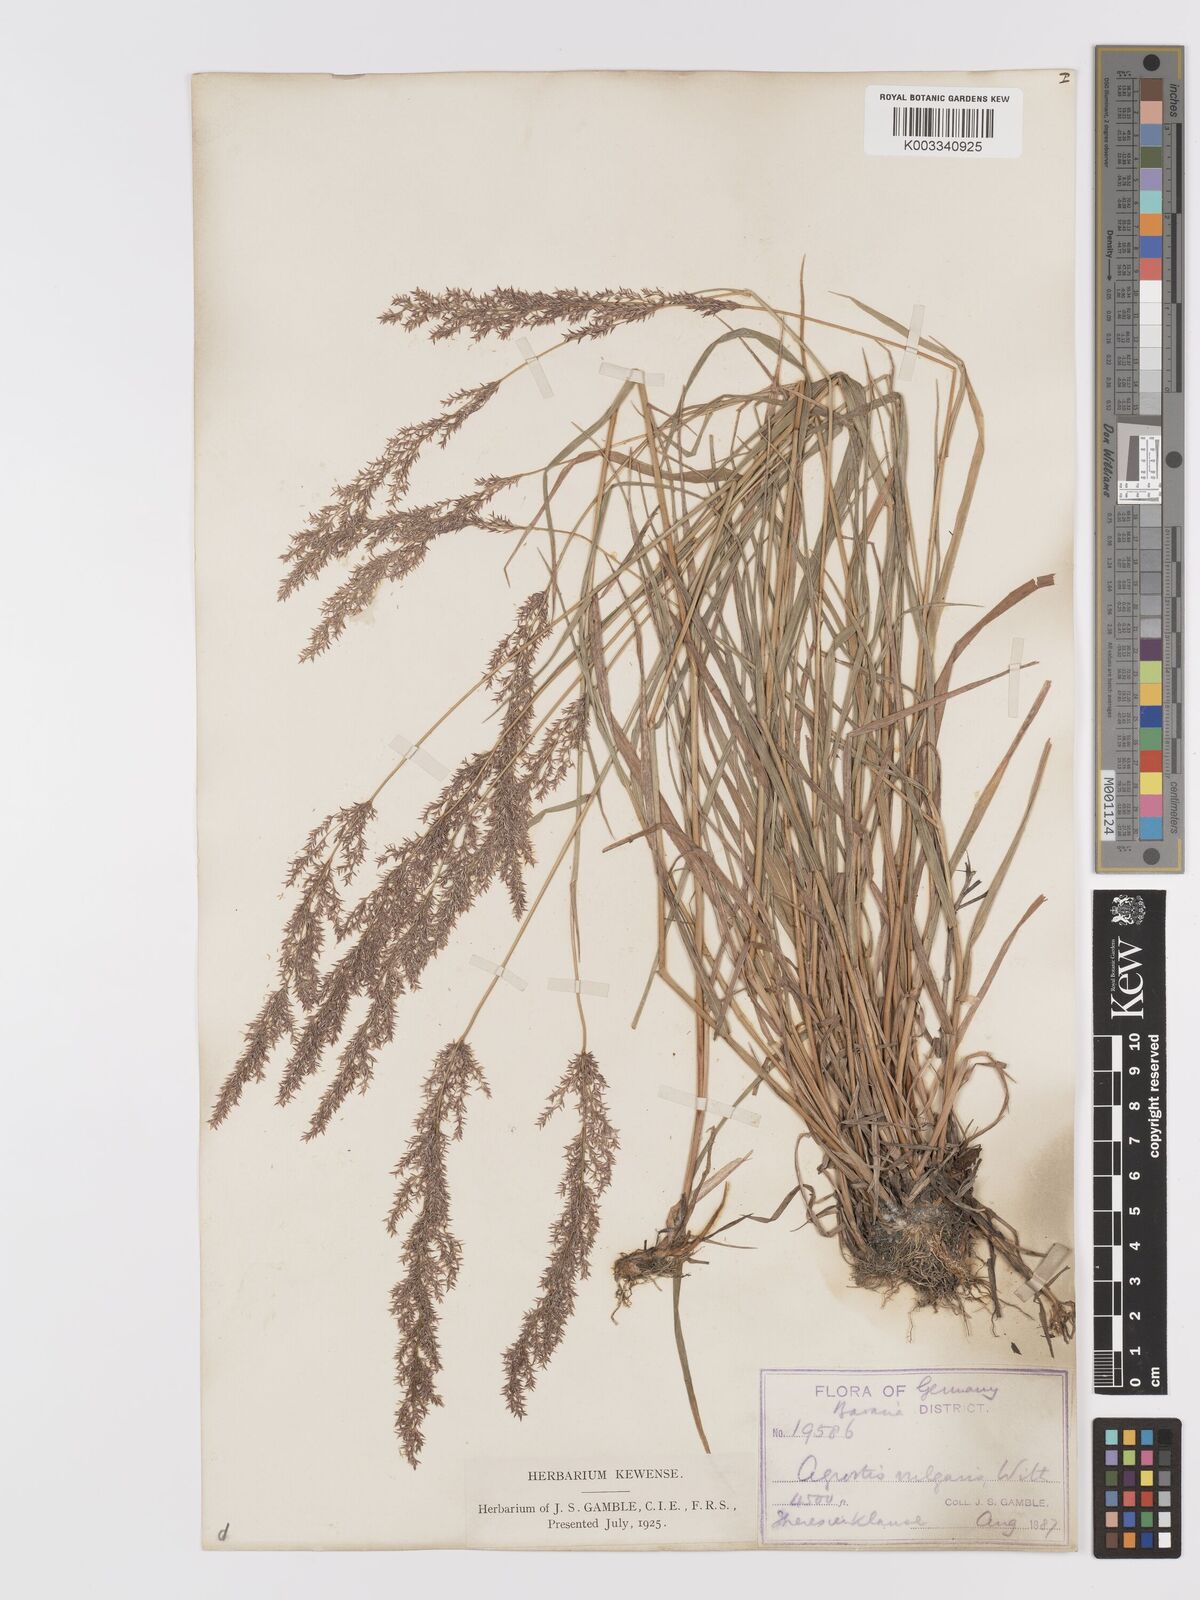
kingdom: Plantae
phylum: Tracheophyta
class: Liliopsida
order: Poales
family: Poaceae
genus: Agrostis
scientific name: Agrostis capillaris
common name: Colonial bentgrass
